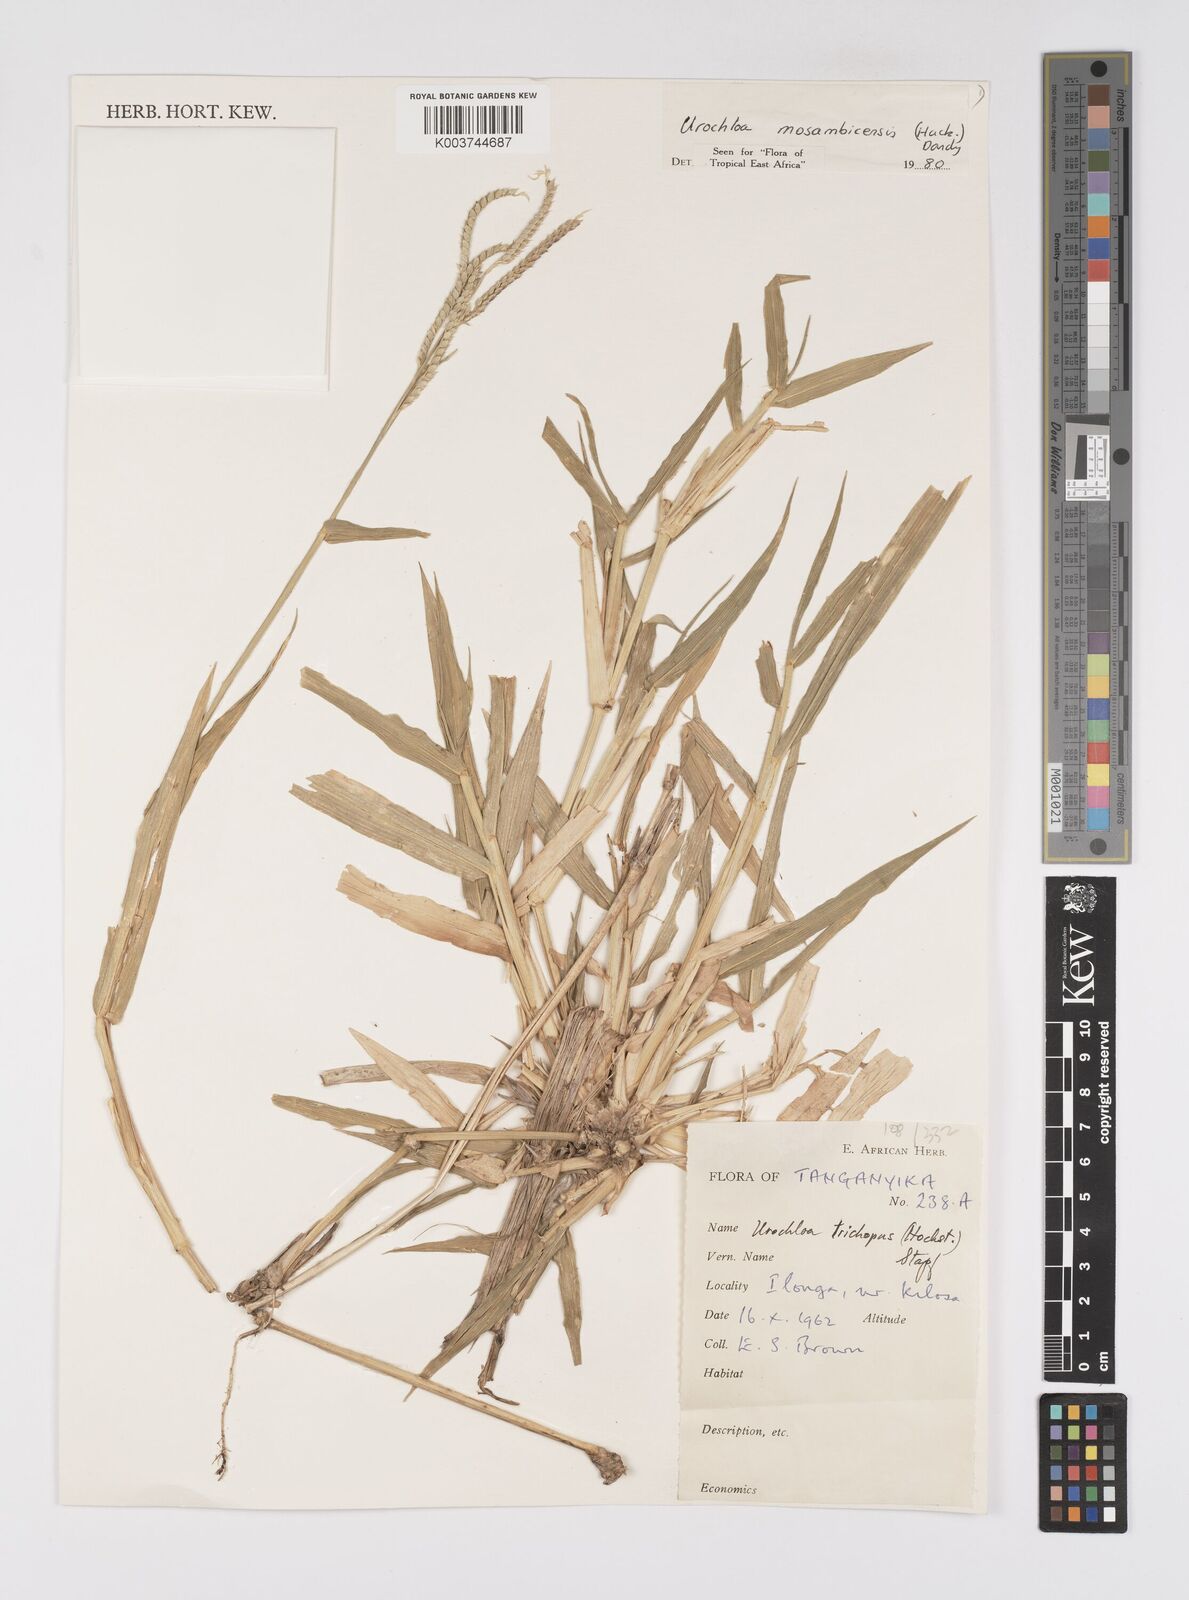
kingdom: Plantae
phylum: Tracheophyta
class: Liliopsida
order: Poales
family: Poaceae
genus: Urochloa
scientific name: Urochloa trichopus
